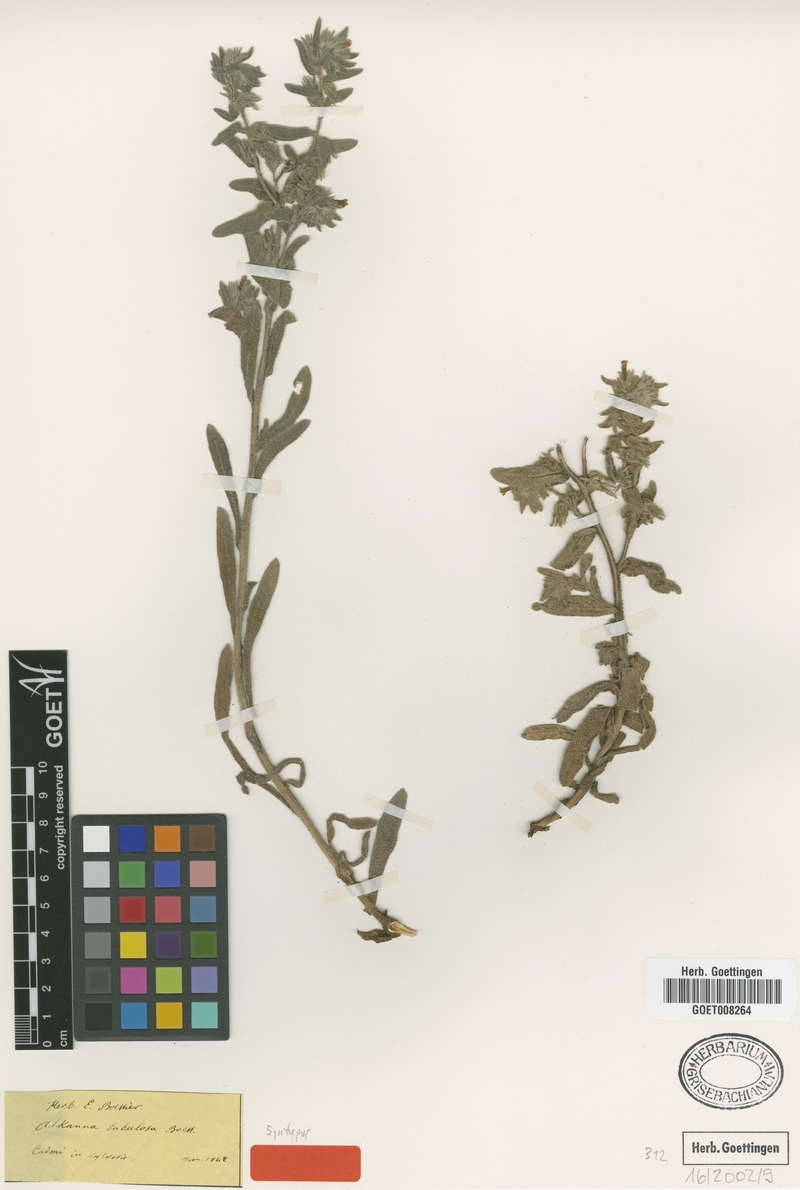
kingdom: Plantae
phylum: Tracheophyta
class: Magnoliopsida
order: Boraginales
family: Boraginaceae
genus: Alkanna
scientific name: Alkanna tubulosa
